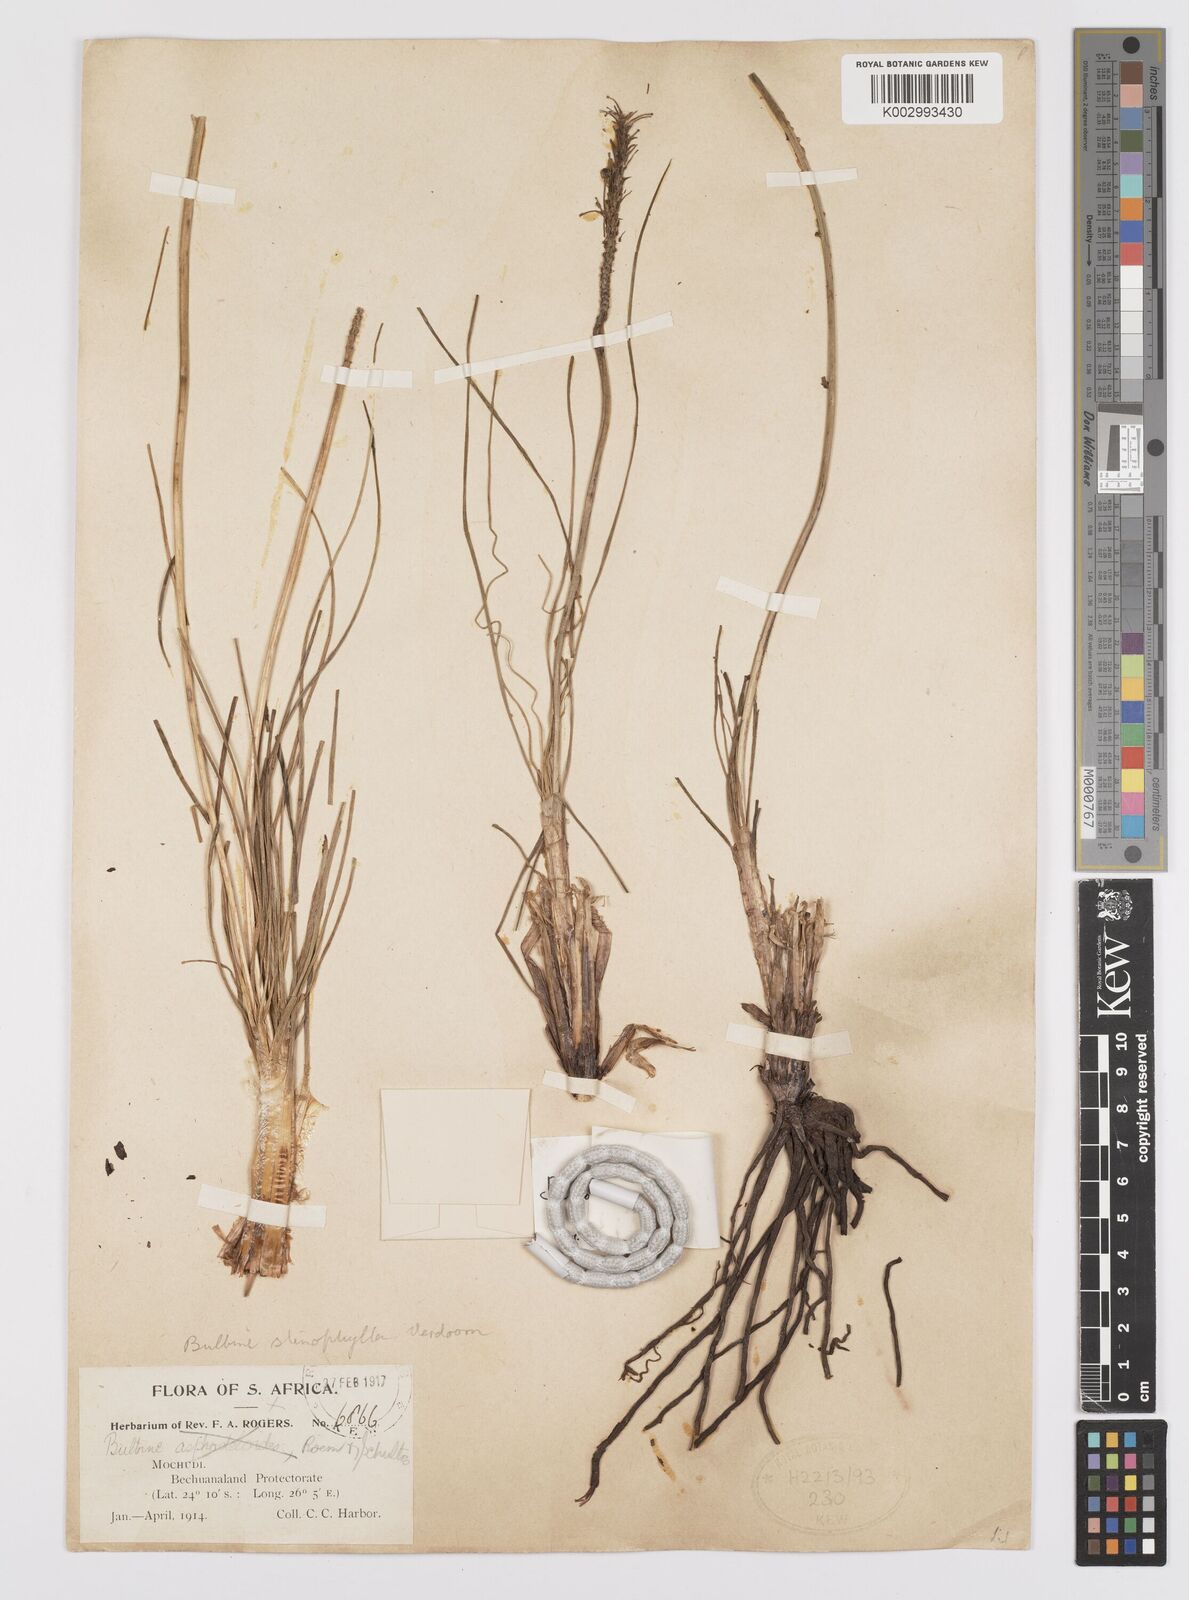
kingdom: Plantae
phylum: Tracheophyta
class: Liliopsida
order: Asparagales
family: Asphodelaceae
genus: Bulbine
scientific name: Bulbine capitata
